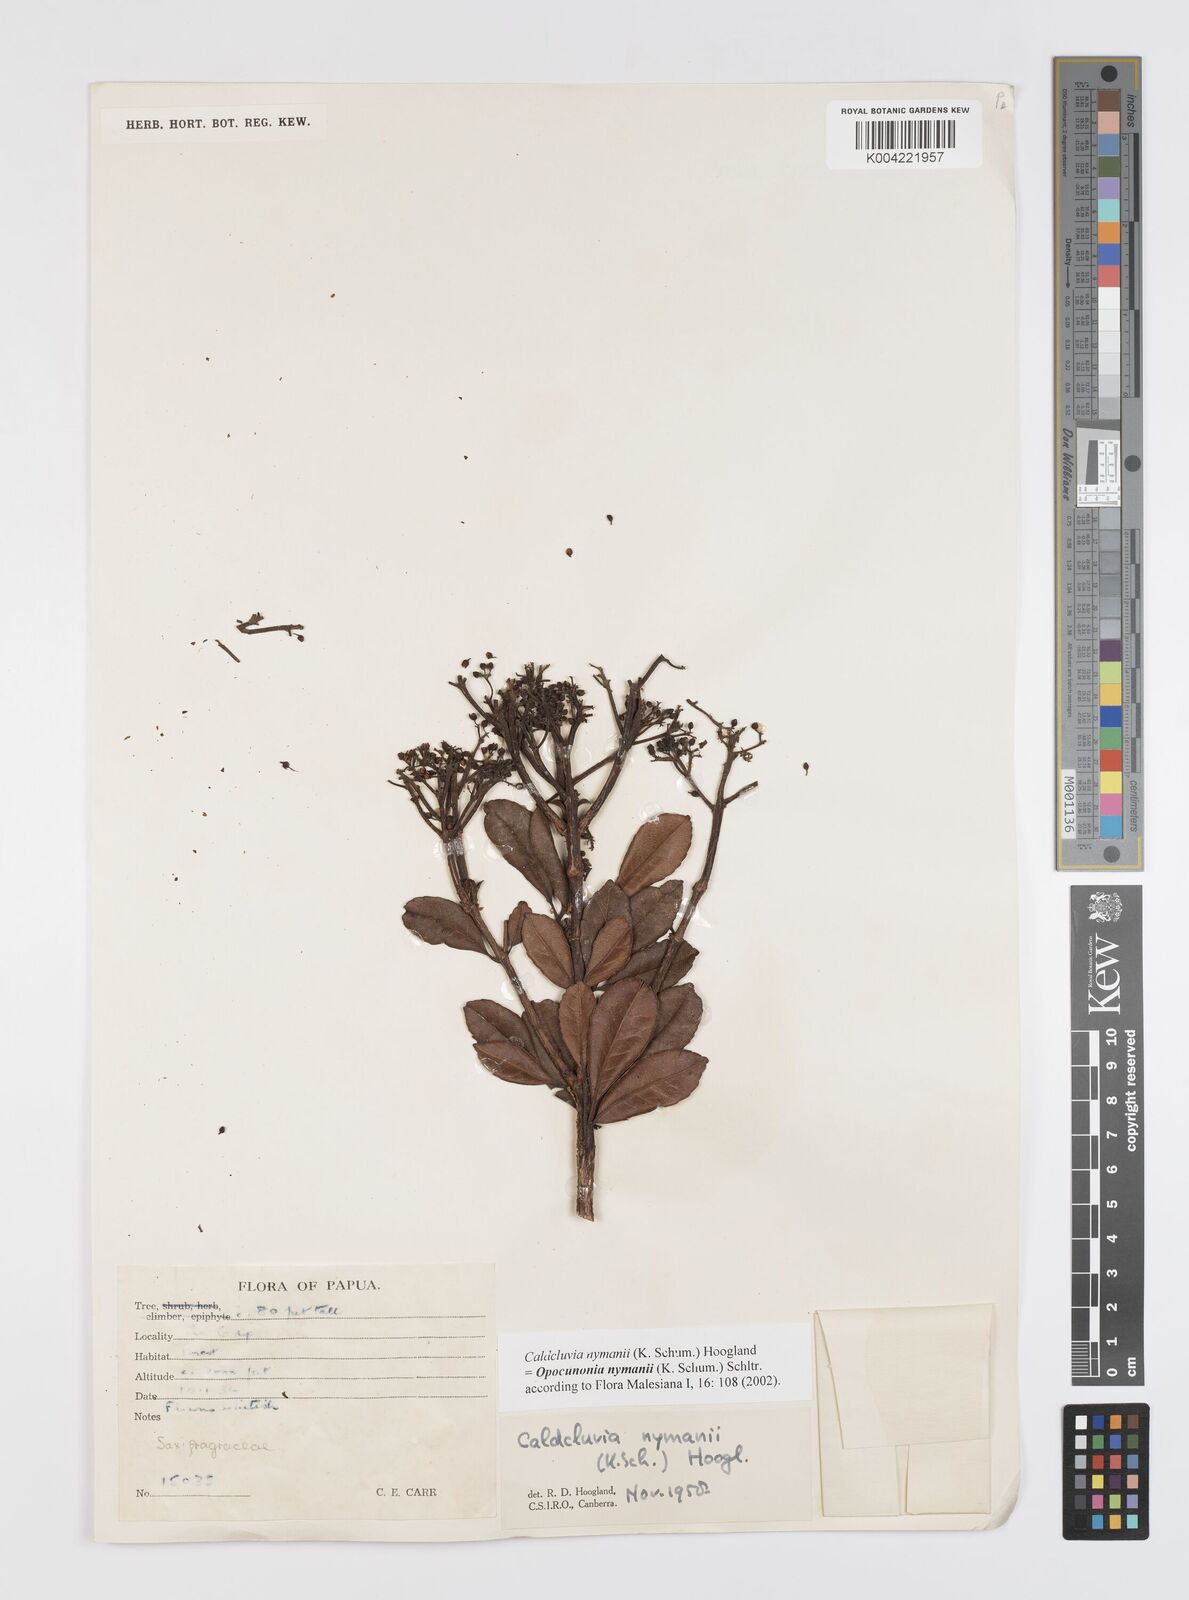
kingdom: Plantae
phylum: Tracheophyta
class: Magnoliopsida
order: Oxalidales
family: Cunoniaceae
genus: Opocunonia
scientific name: Opocunonia nymanii
